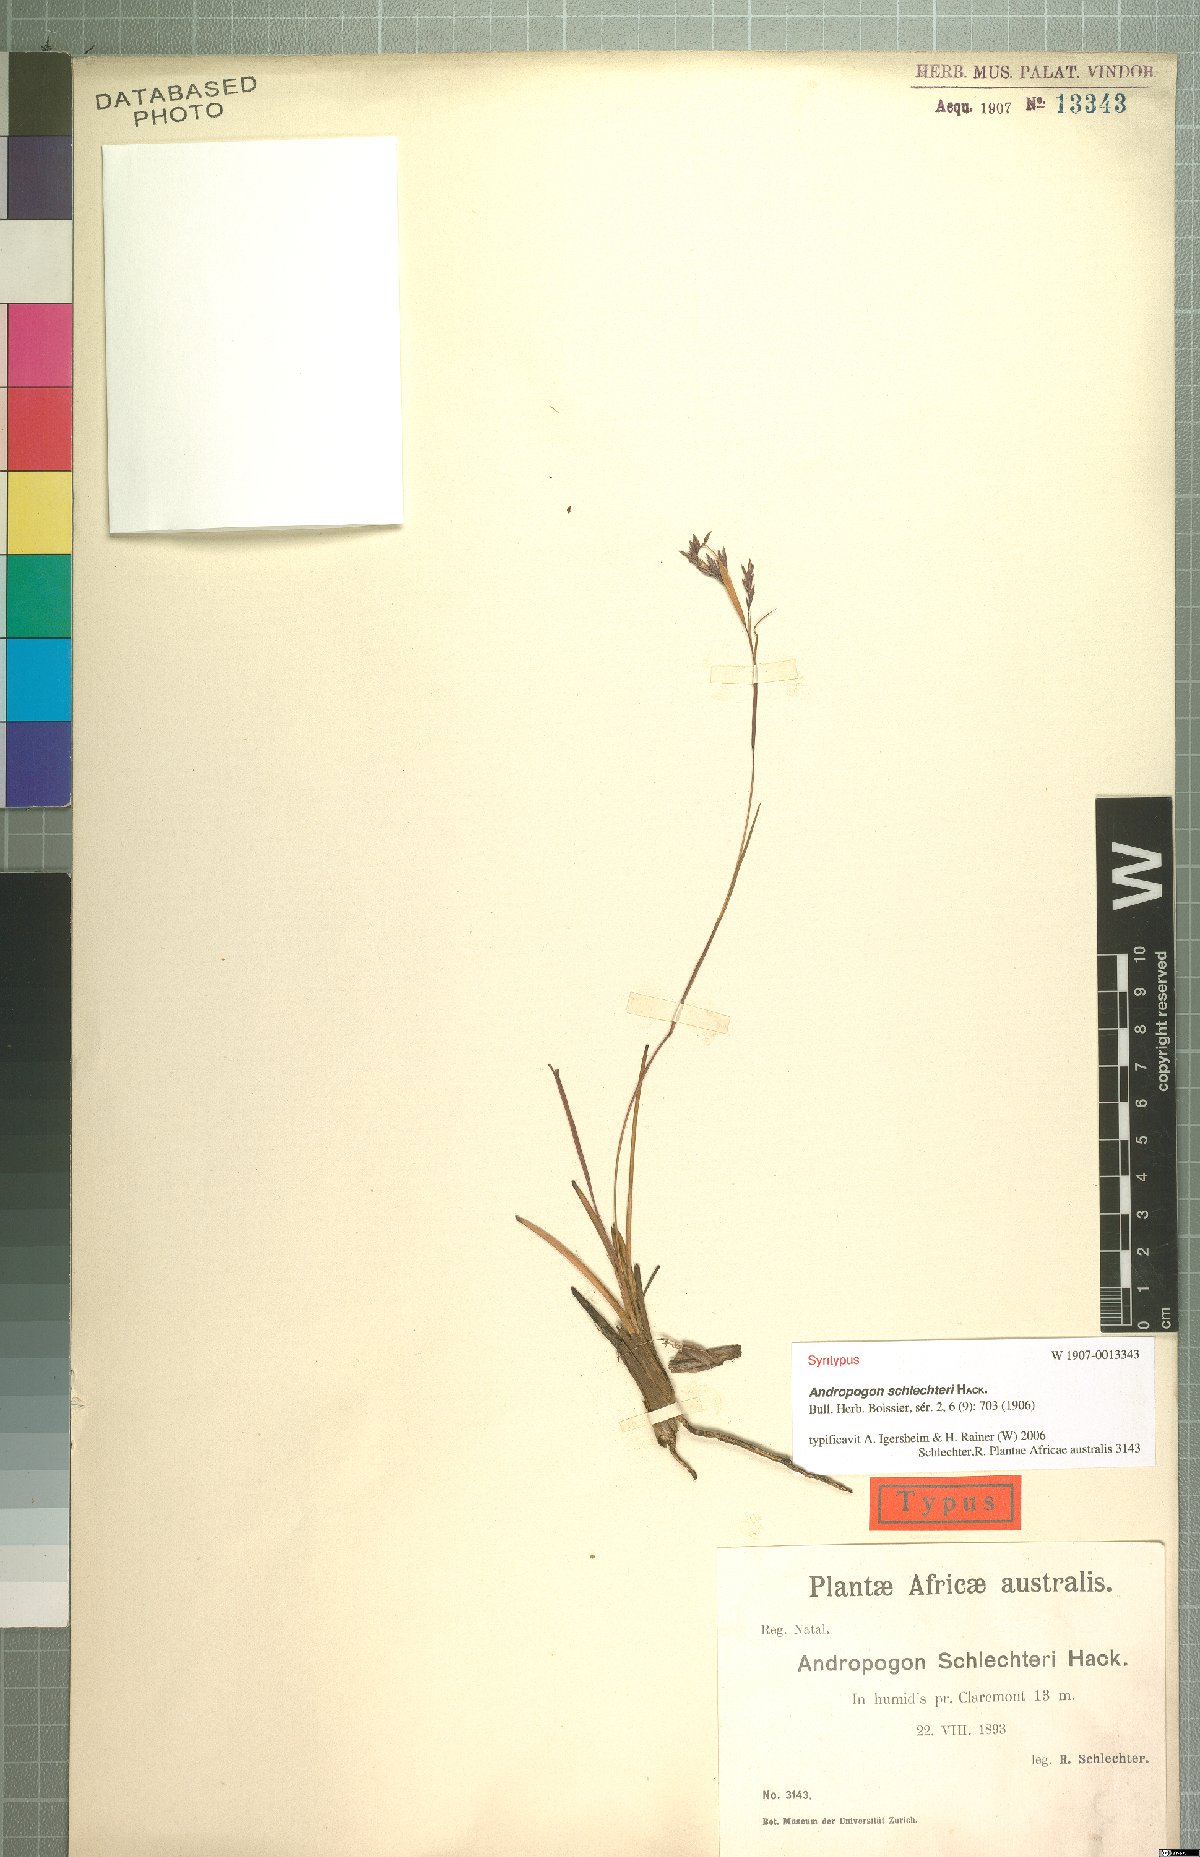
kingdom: Plantae
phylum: Tracheophyta
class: Liliopsida
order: Poales
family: Poaceae
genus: Andropogon
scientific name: Andropogon festuciformis
